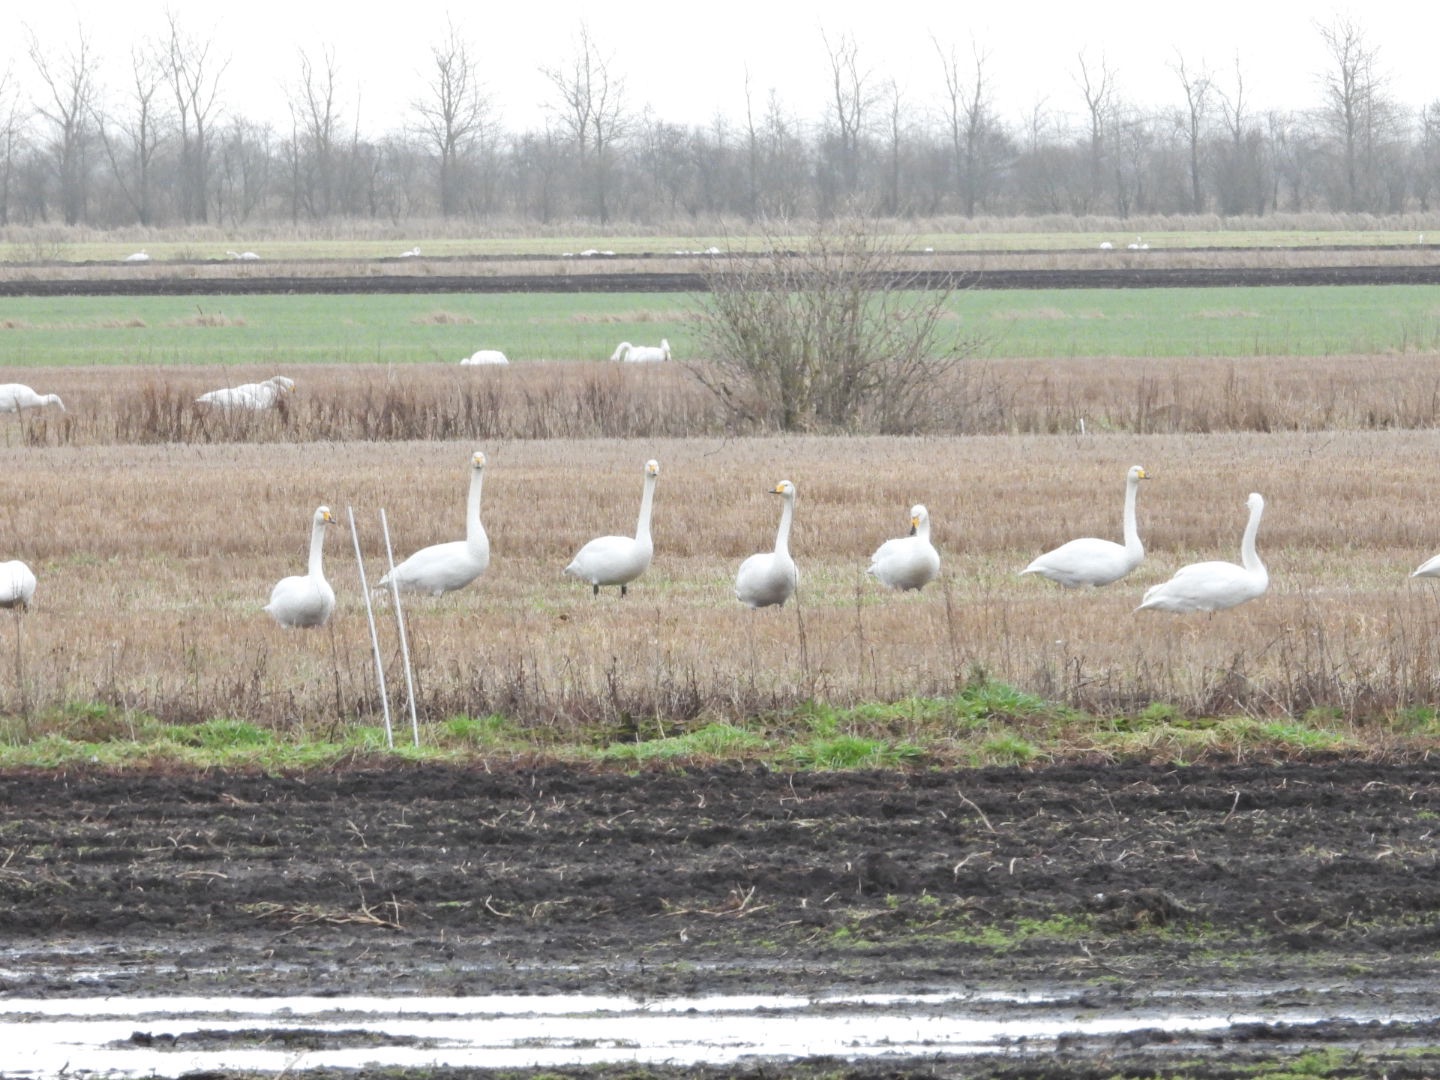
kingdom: Animalia
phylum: Chordata
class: Aves
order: Anseriformes
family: Anatidae
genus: Cygnus
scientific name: Cygnus cygnus
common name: Sangsvane
